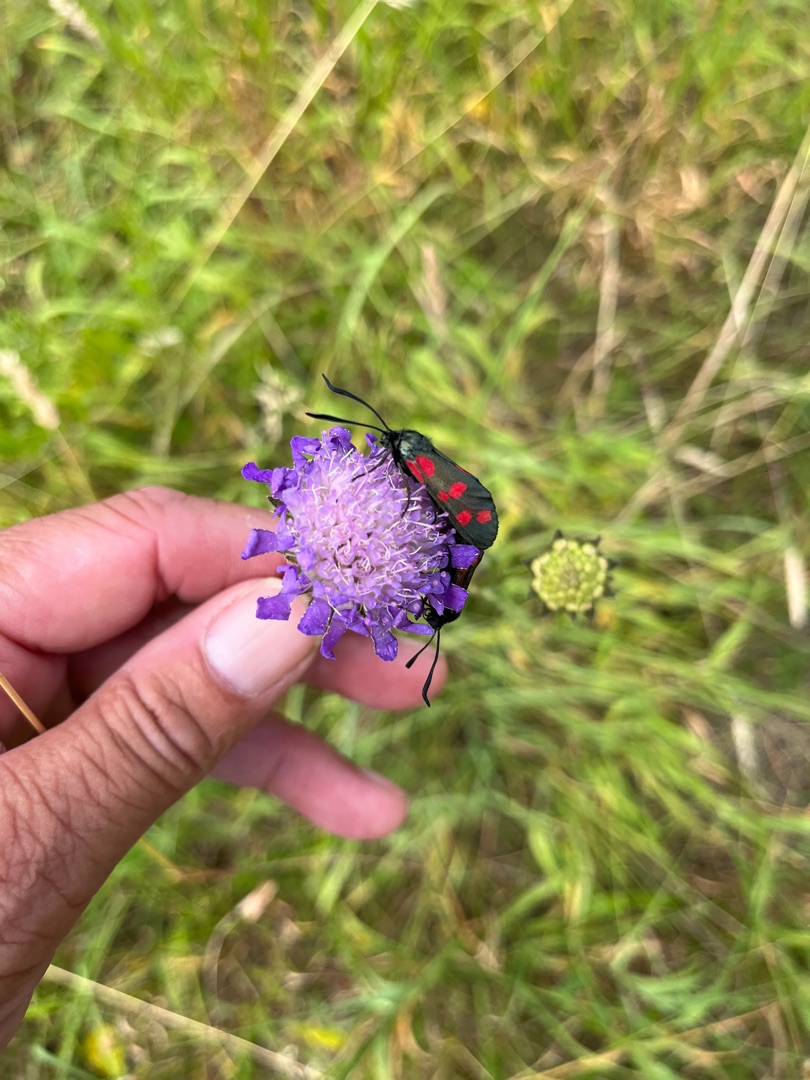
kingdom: Animalia
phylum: Arthropoda
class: Insecta
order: Lepidoptera
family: Zygaenidae
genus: Zygaena
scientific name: Zygaena filipendulae
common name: Seksplettet køllesværmer
